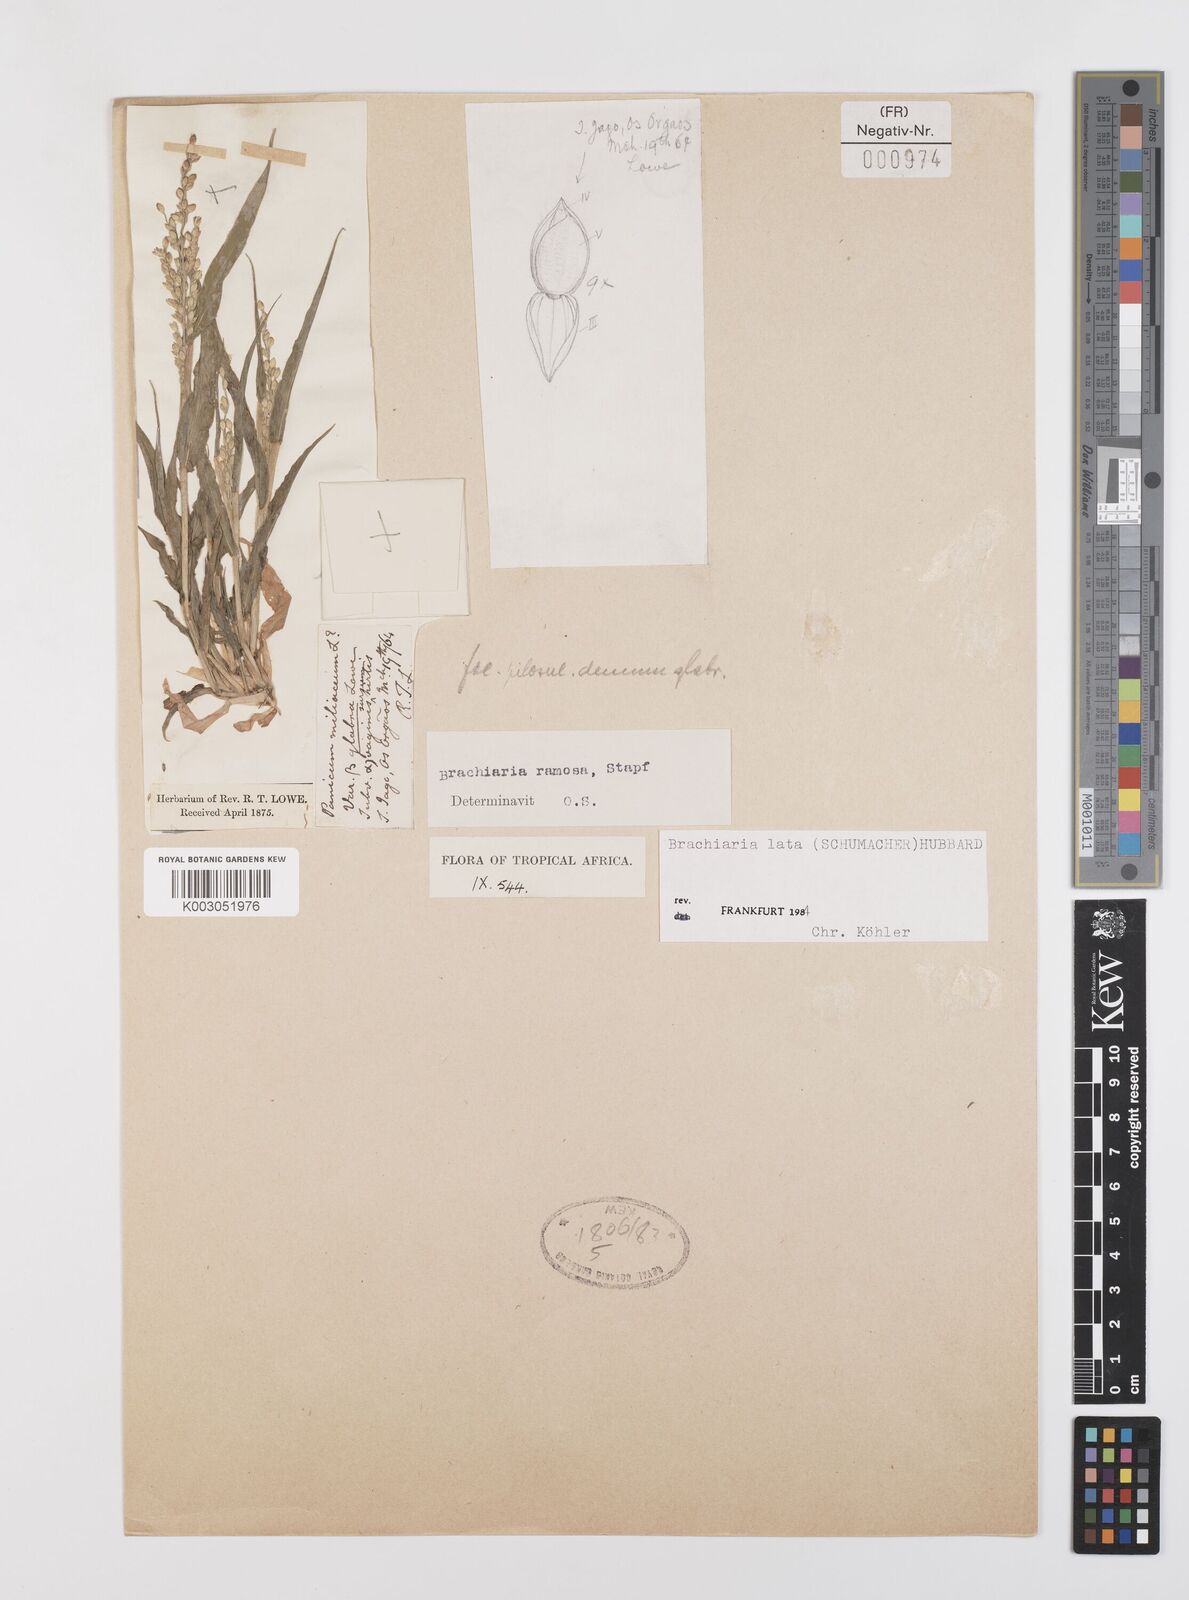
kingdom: Plantae
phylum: Tracheophyta
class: Liliopsida
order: Poales
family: Poaceae
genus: Urochloa
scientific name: Urochloa ramosa
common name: Browntop millet
